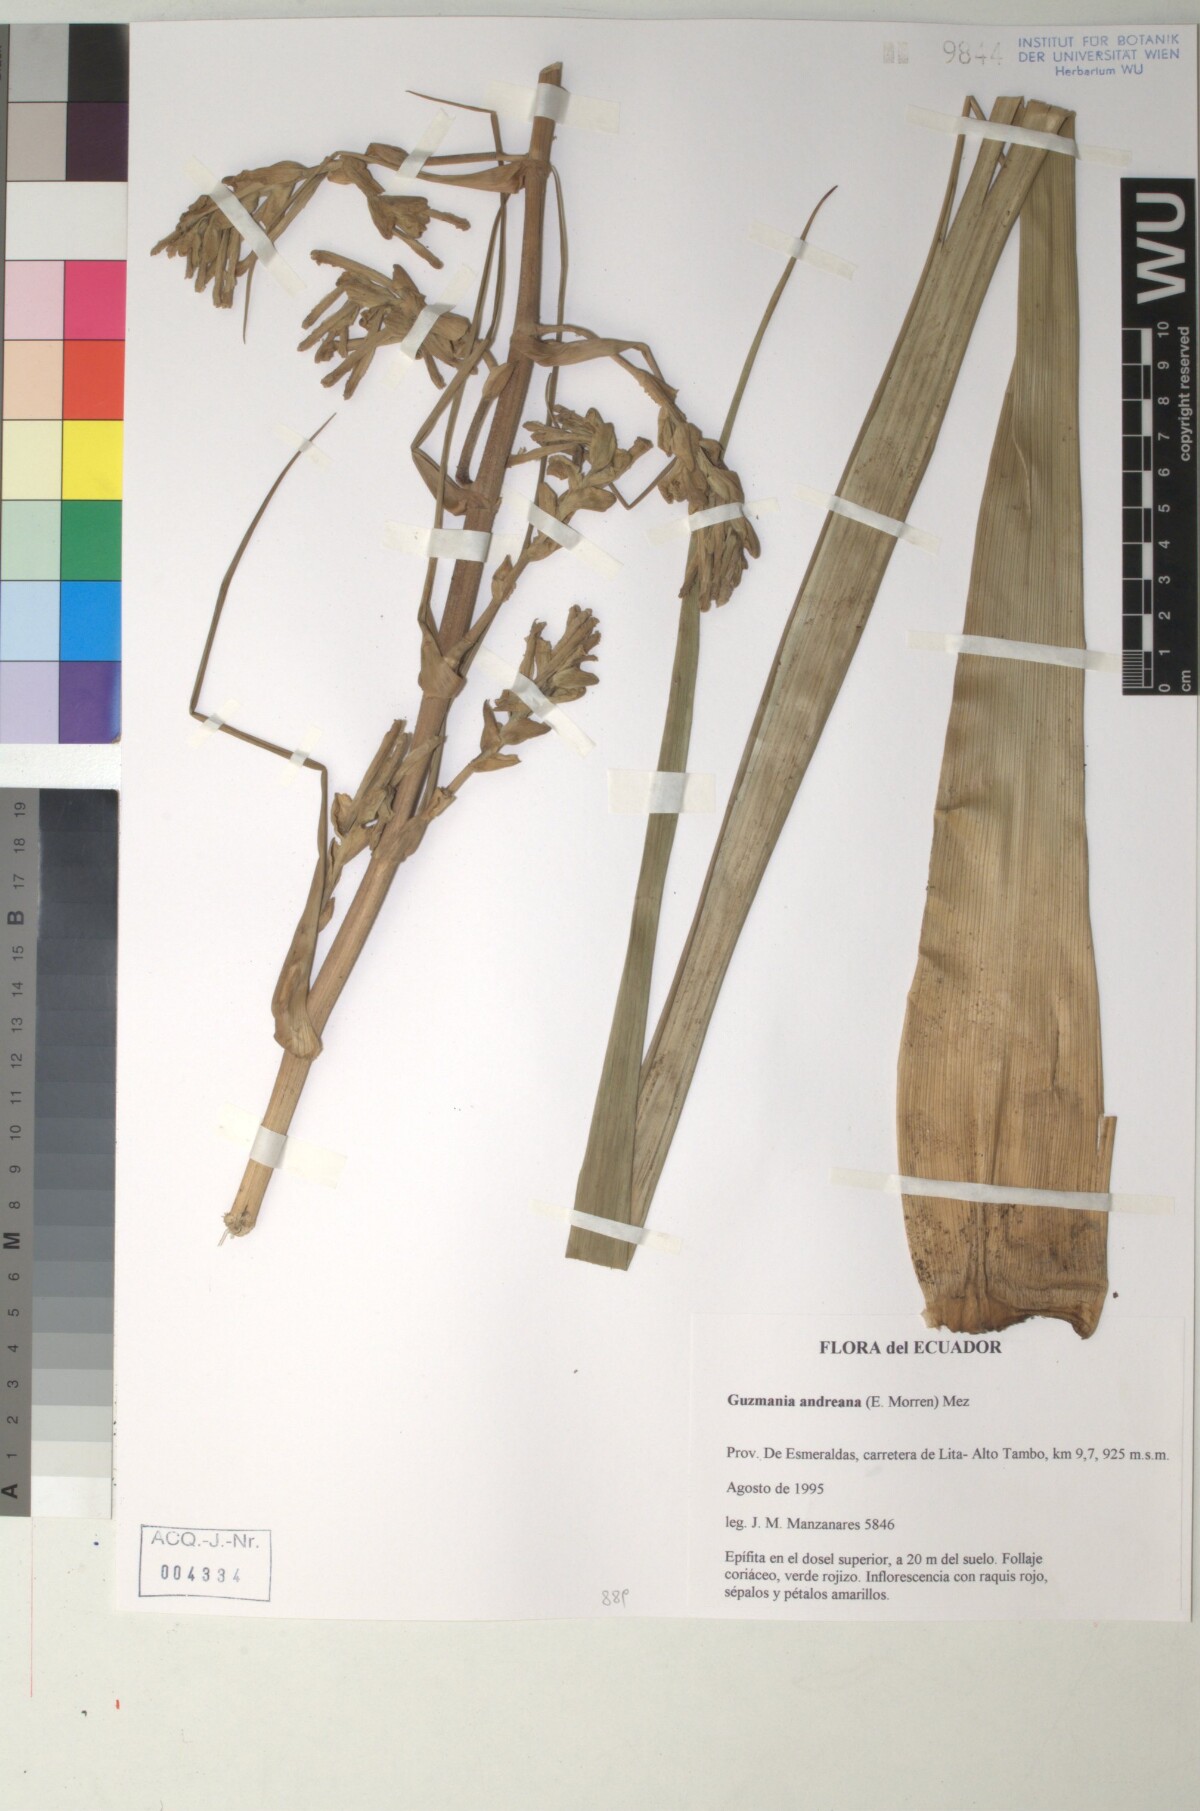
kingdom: Plantae
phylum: Tracheophyta
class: Liliopsida
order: Poales
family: Bromeliaceae
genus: Guzmania
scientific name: Guzmania andreana
